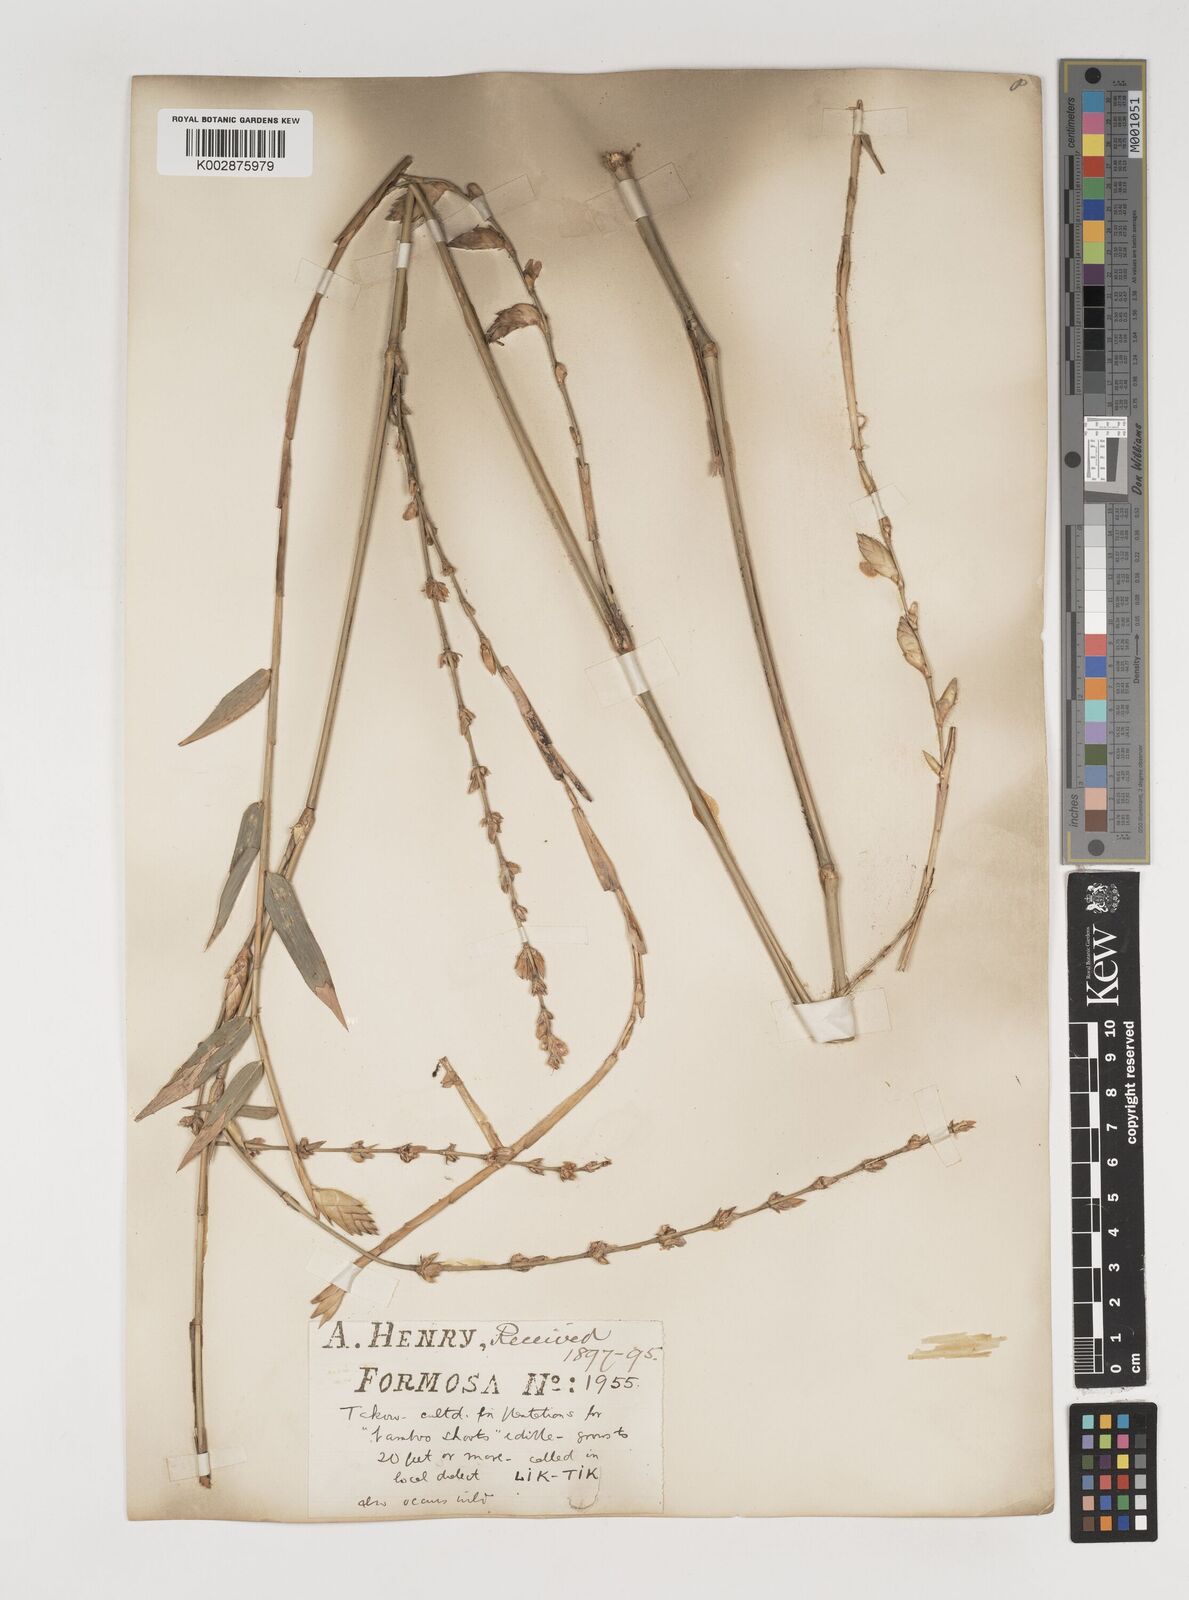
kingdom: Plantae
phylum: Tracheophyta
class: Liliopsida
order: Poales
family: Poaceae
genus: Bambusa
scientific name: Bambusa oldhamii
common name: Giant timber bamboo
